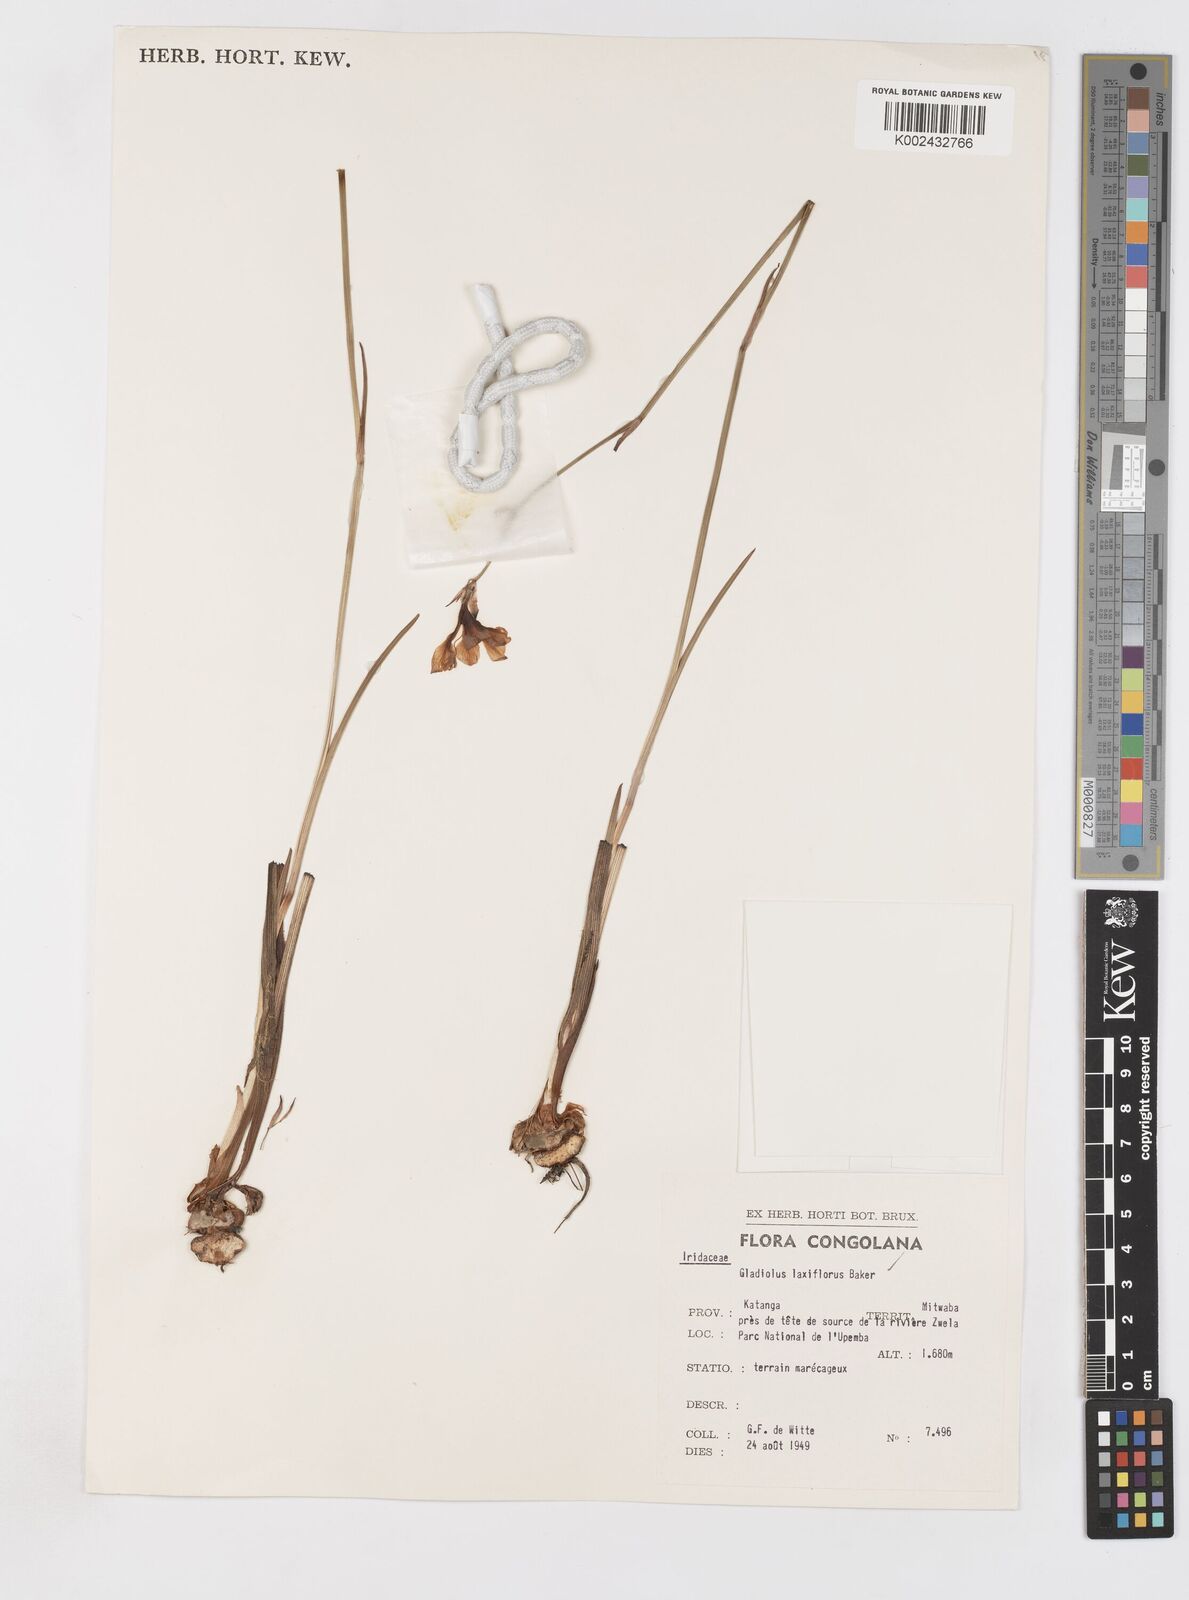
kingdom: Plantae
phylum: Tracheophyta
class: Liliopsida
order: Asparagales
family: Iridaceae
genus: Gladiolus
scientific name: Gladiolus laxiflorus
